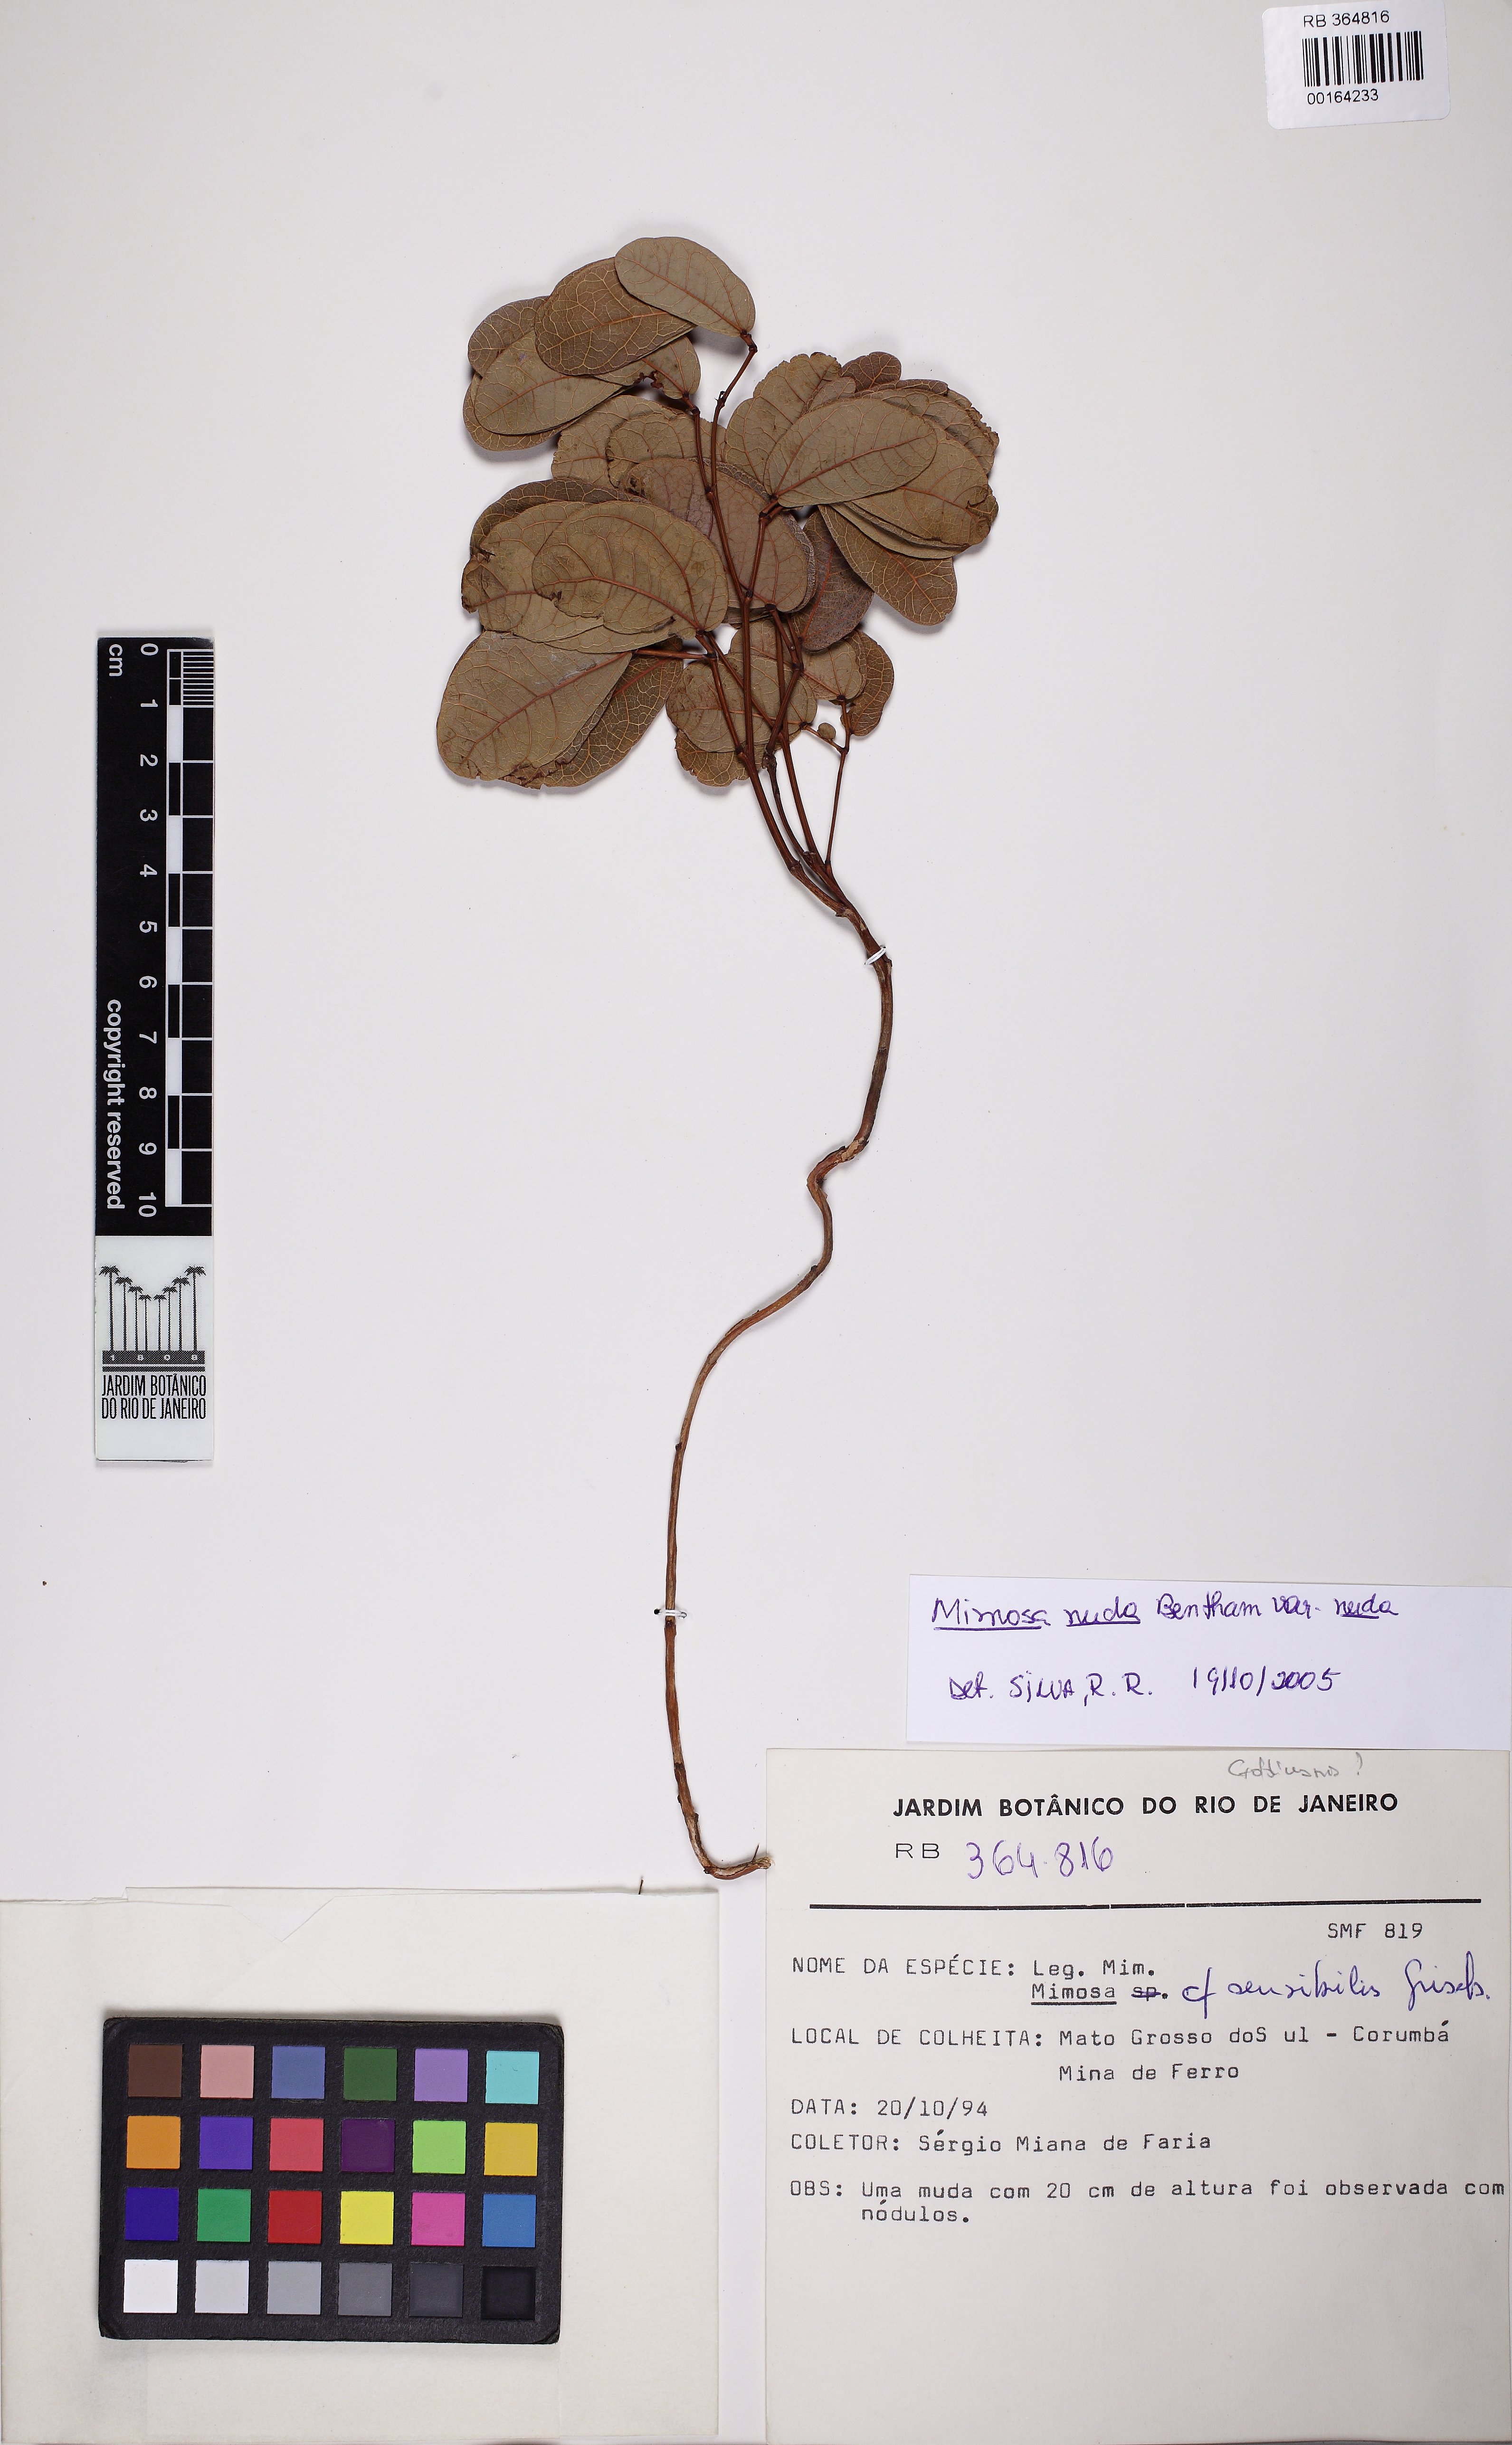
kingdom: Plantae
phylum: Tracheophyta
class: Magnoliopsida
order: Fabales
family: Fabaceae
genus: Mimosa
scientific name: Mimosa debilis
